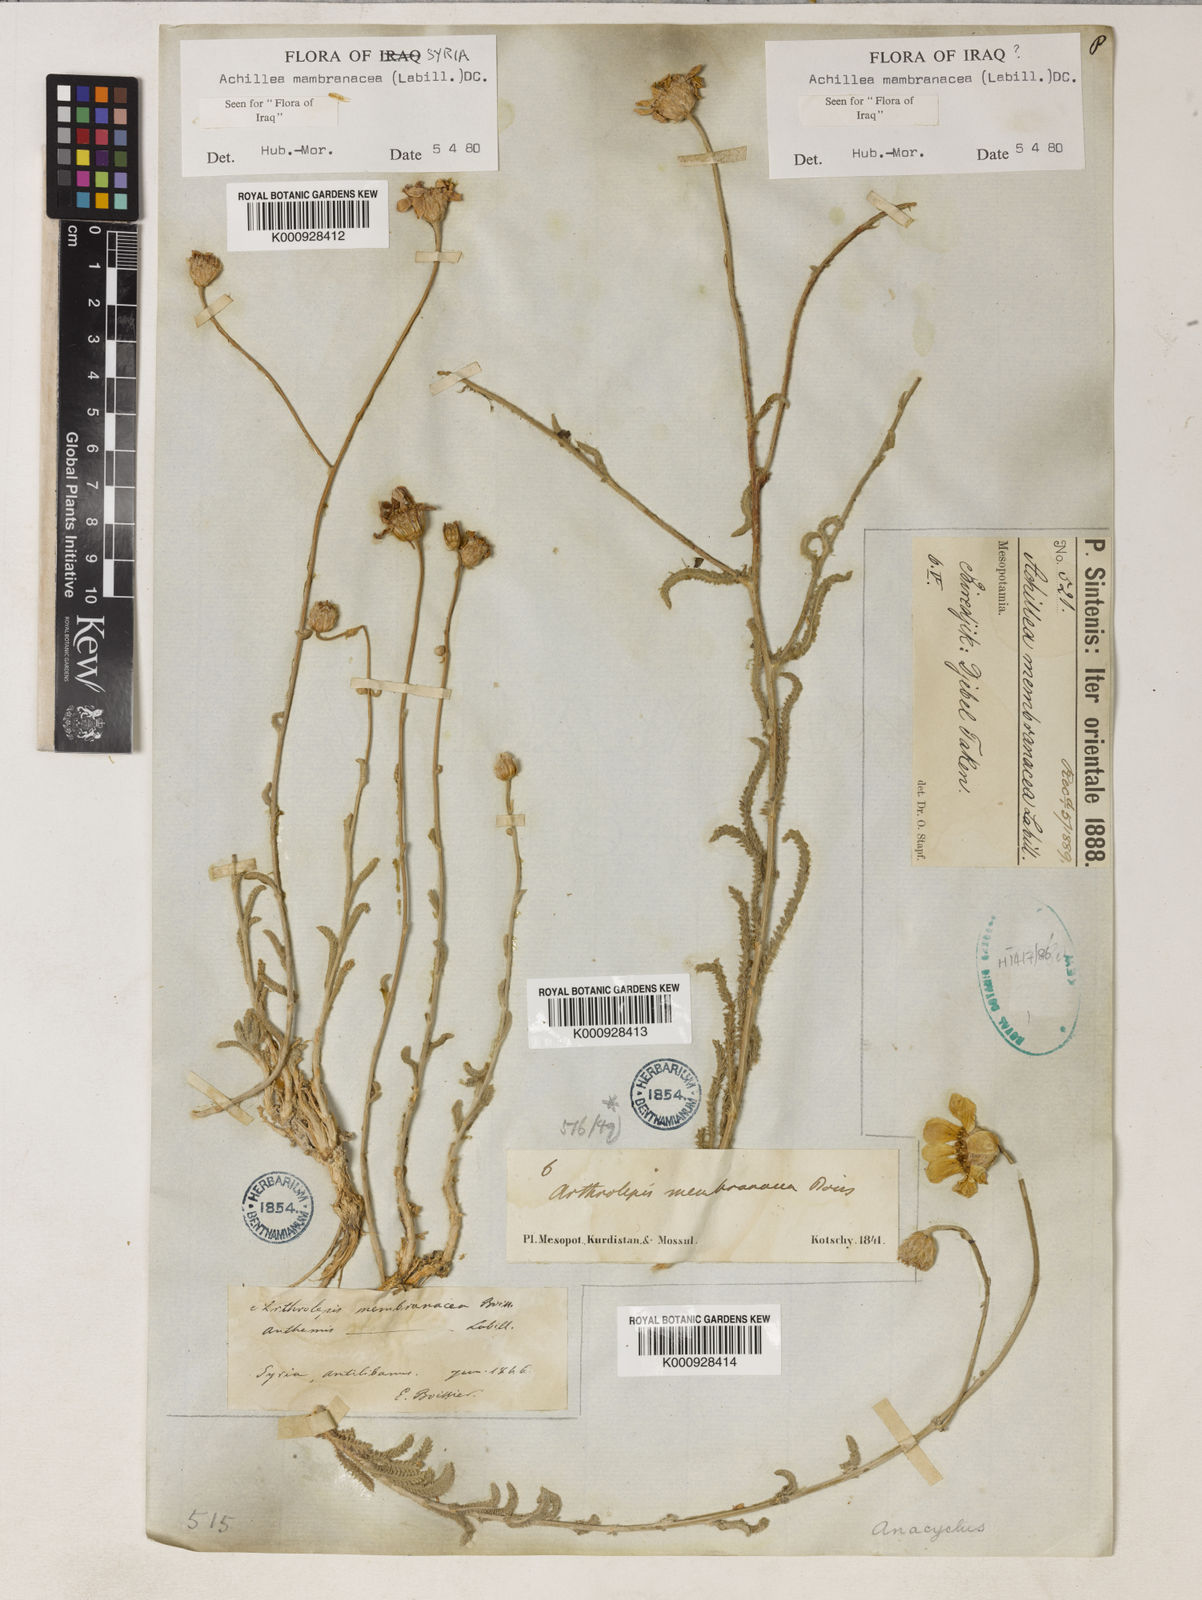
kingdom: Plantae
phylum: Tracheophyta
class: Magnoliopsida
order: Asterales
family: Asteraceae
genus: Achillea
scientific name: Achillea membranacea
